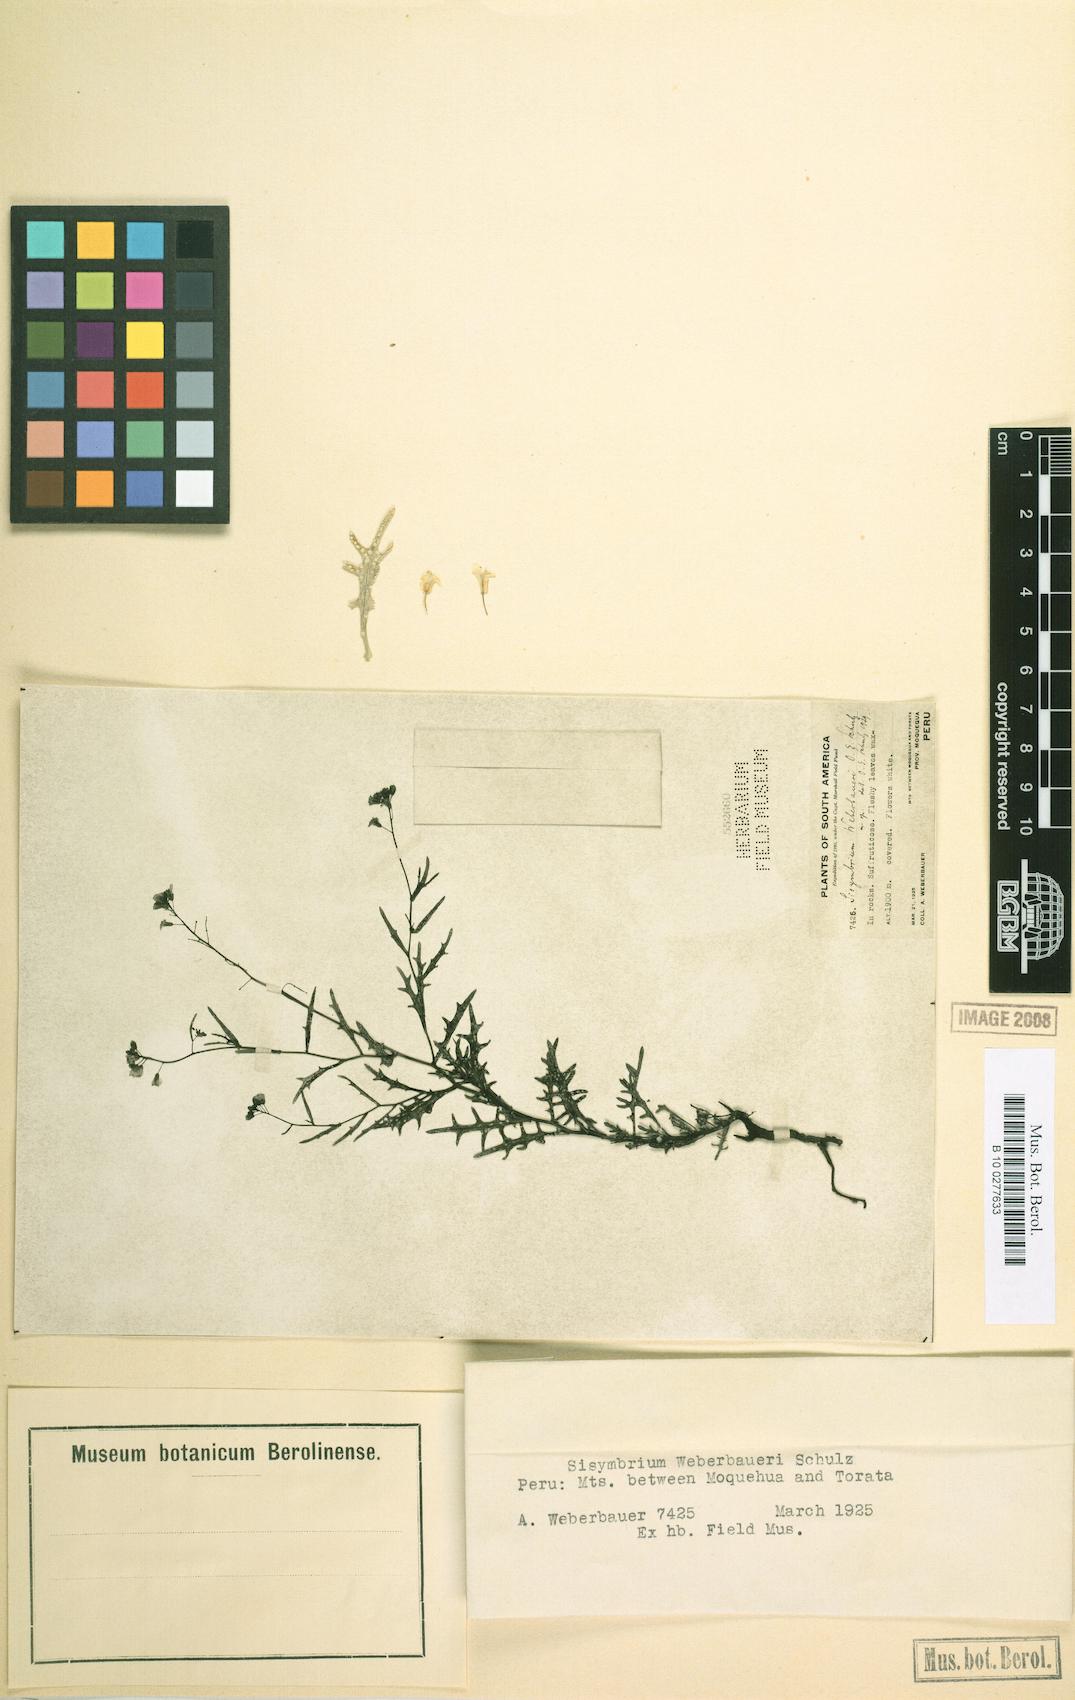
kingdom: Plantae
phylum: Tracheophyta
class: Magnoliopsida
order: Brassicales
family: Brassicaceae
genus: Mostacillastrum
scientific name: Mostacillastrum weberbaueri
